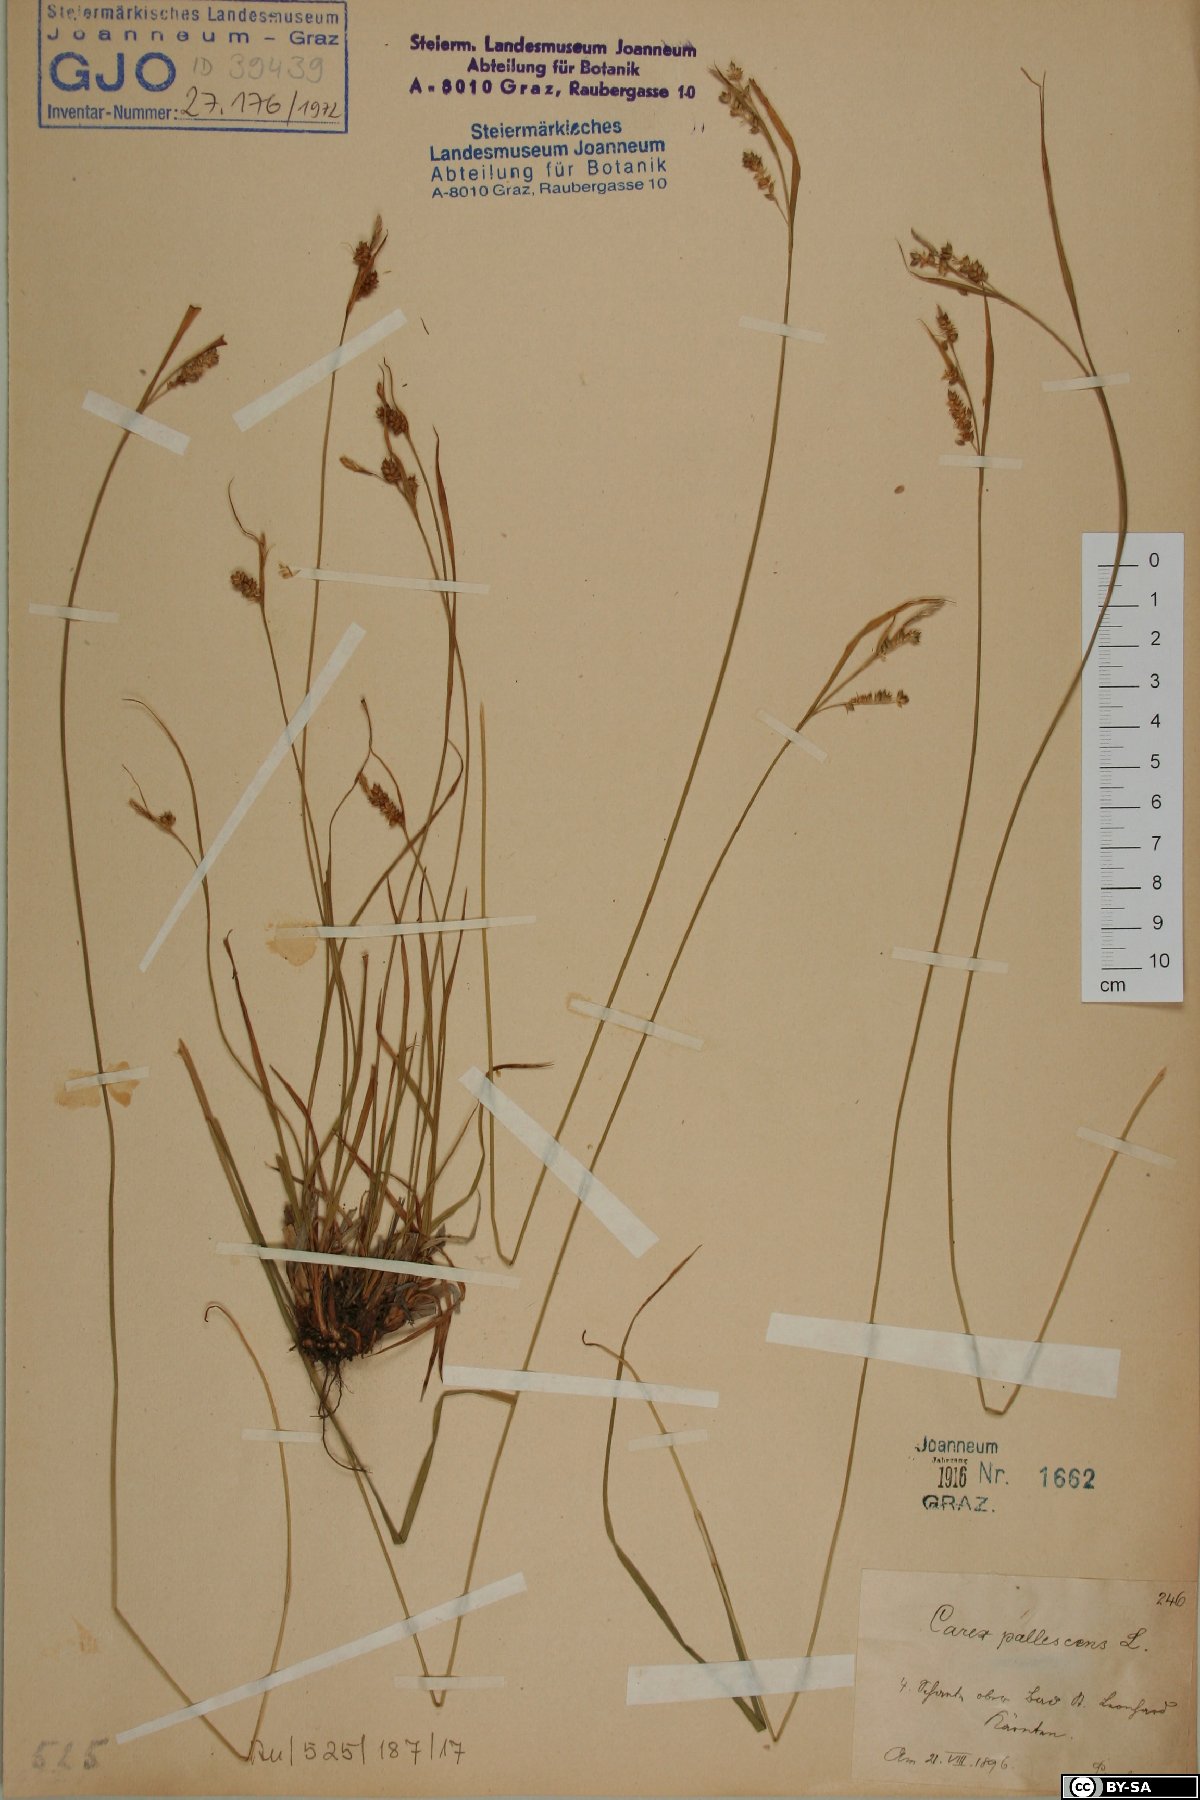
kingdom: Plantae
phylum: Tracheophyta
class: Liliopsida
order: Poales
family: Cyperaceae
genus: Carex
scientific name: Carex pallescens
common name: Pale sedge
